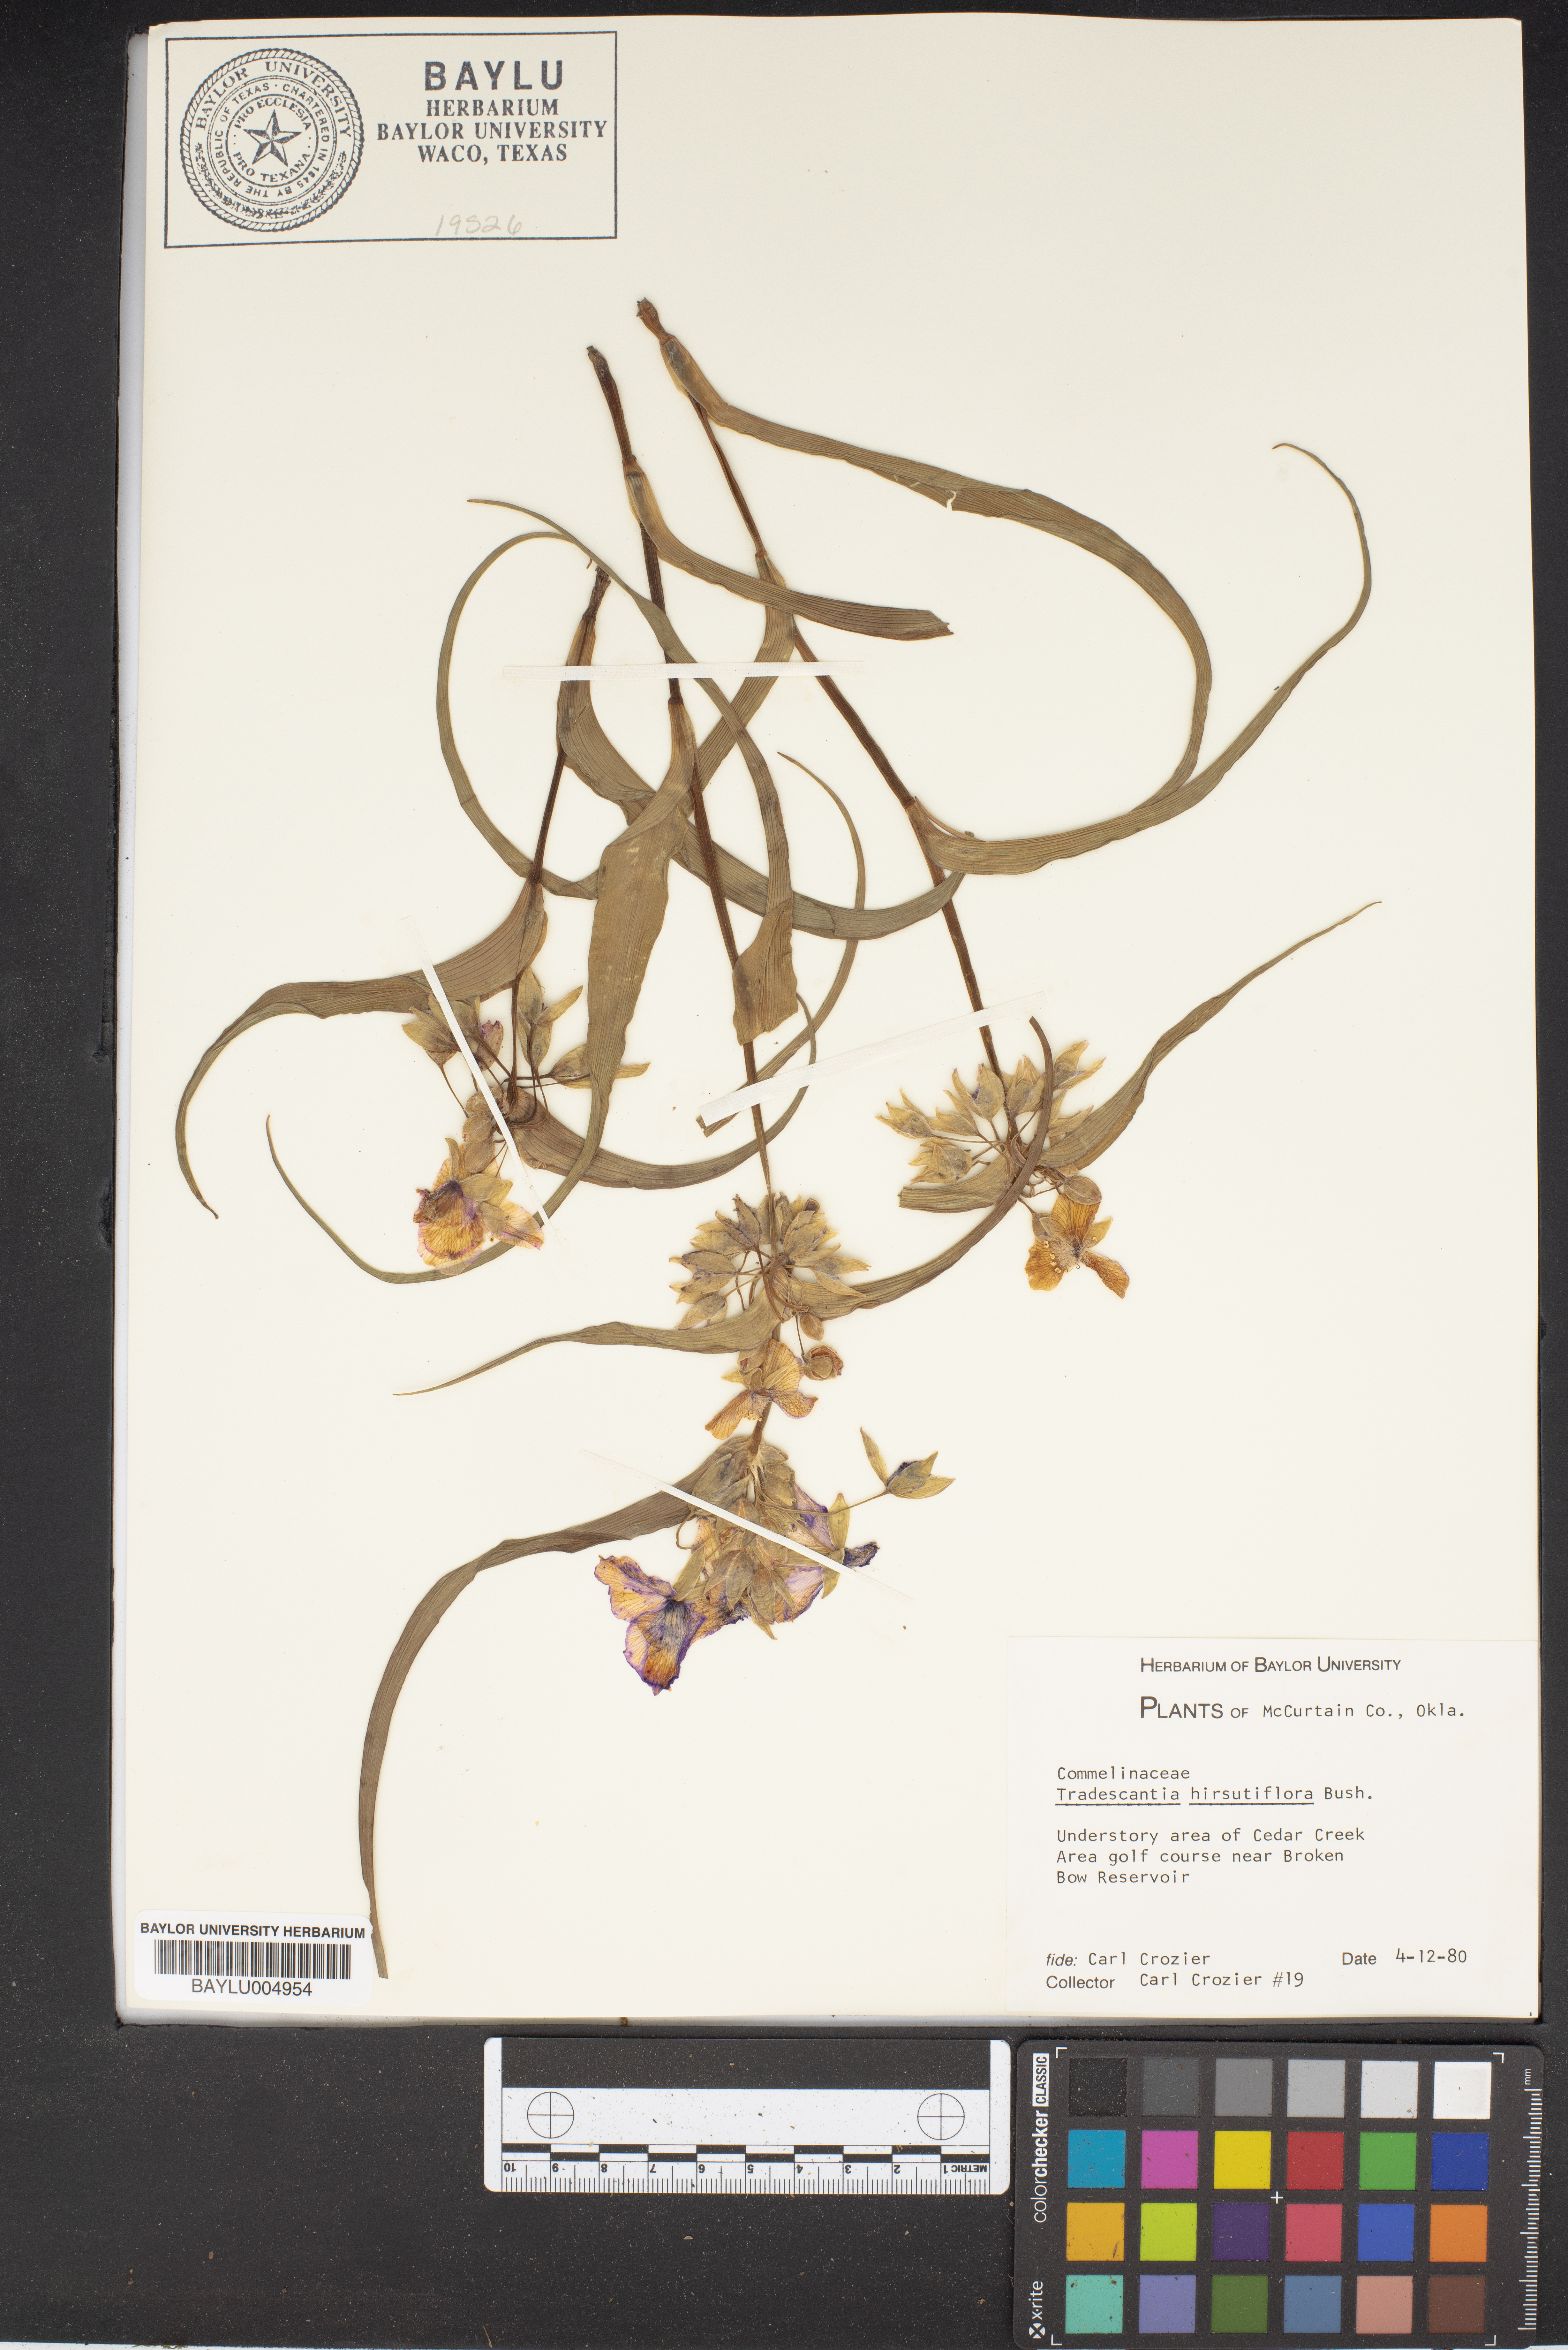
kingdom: Plantae
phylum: Tracheophyta
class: Liliopsida
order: Commelinales
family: Commelinaceae
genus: Tradescantia
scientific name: Tradescantia hirsutiflora
